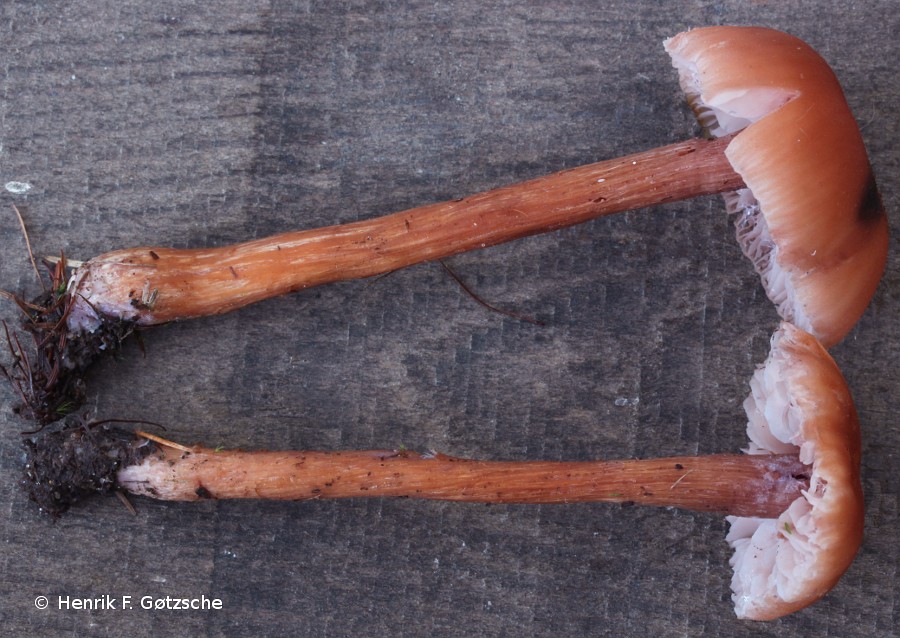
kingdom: Fungi
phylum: Basidiomycota
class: Agaricomycetes
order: Agaricales
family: Hydnangiaceae
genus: Laccaria
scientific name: Laccaria bicolor
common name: tvefarvet ametysthat
